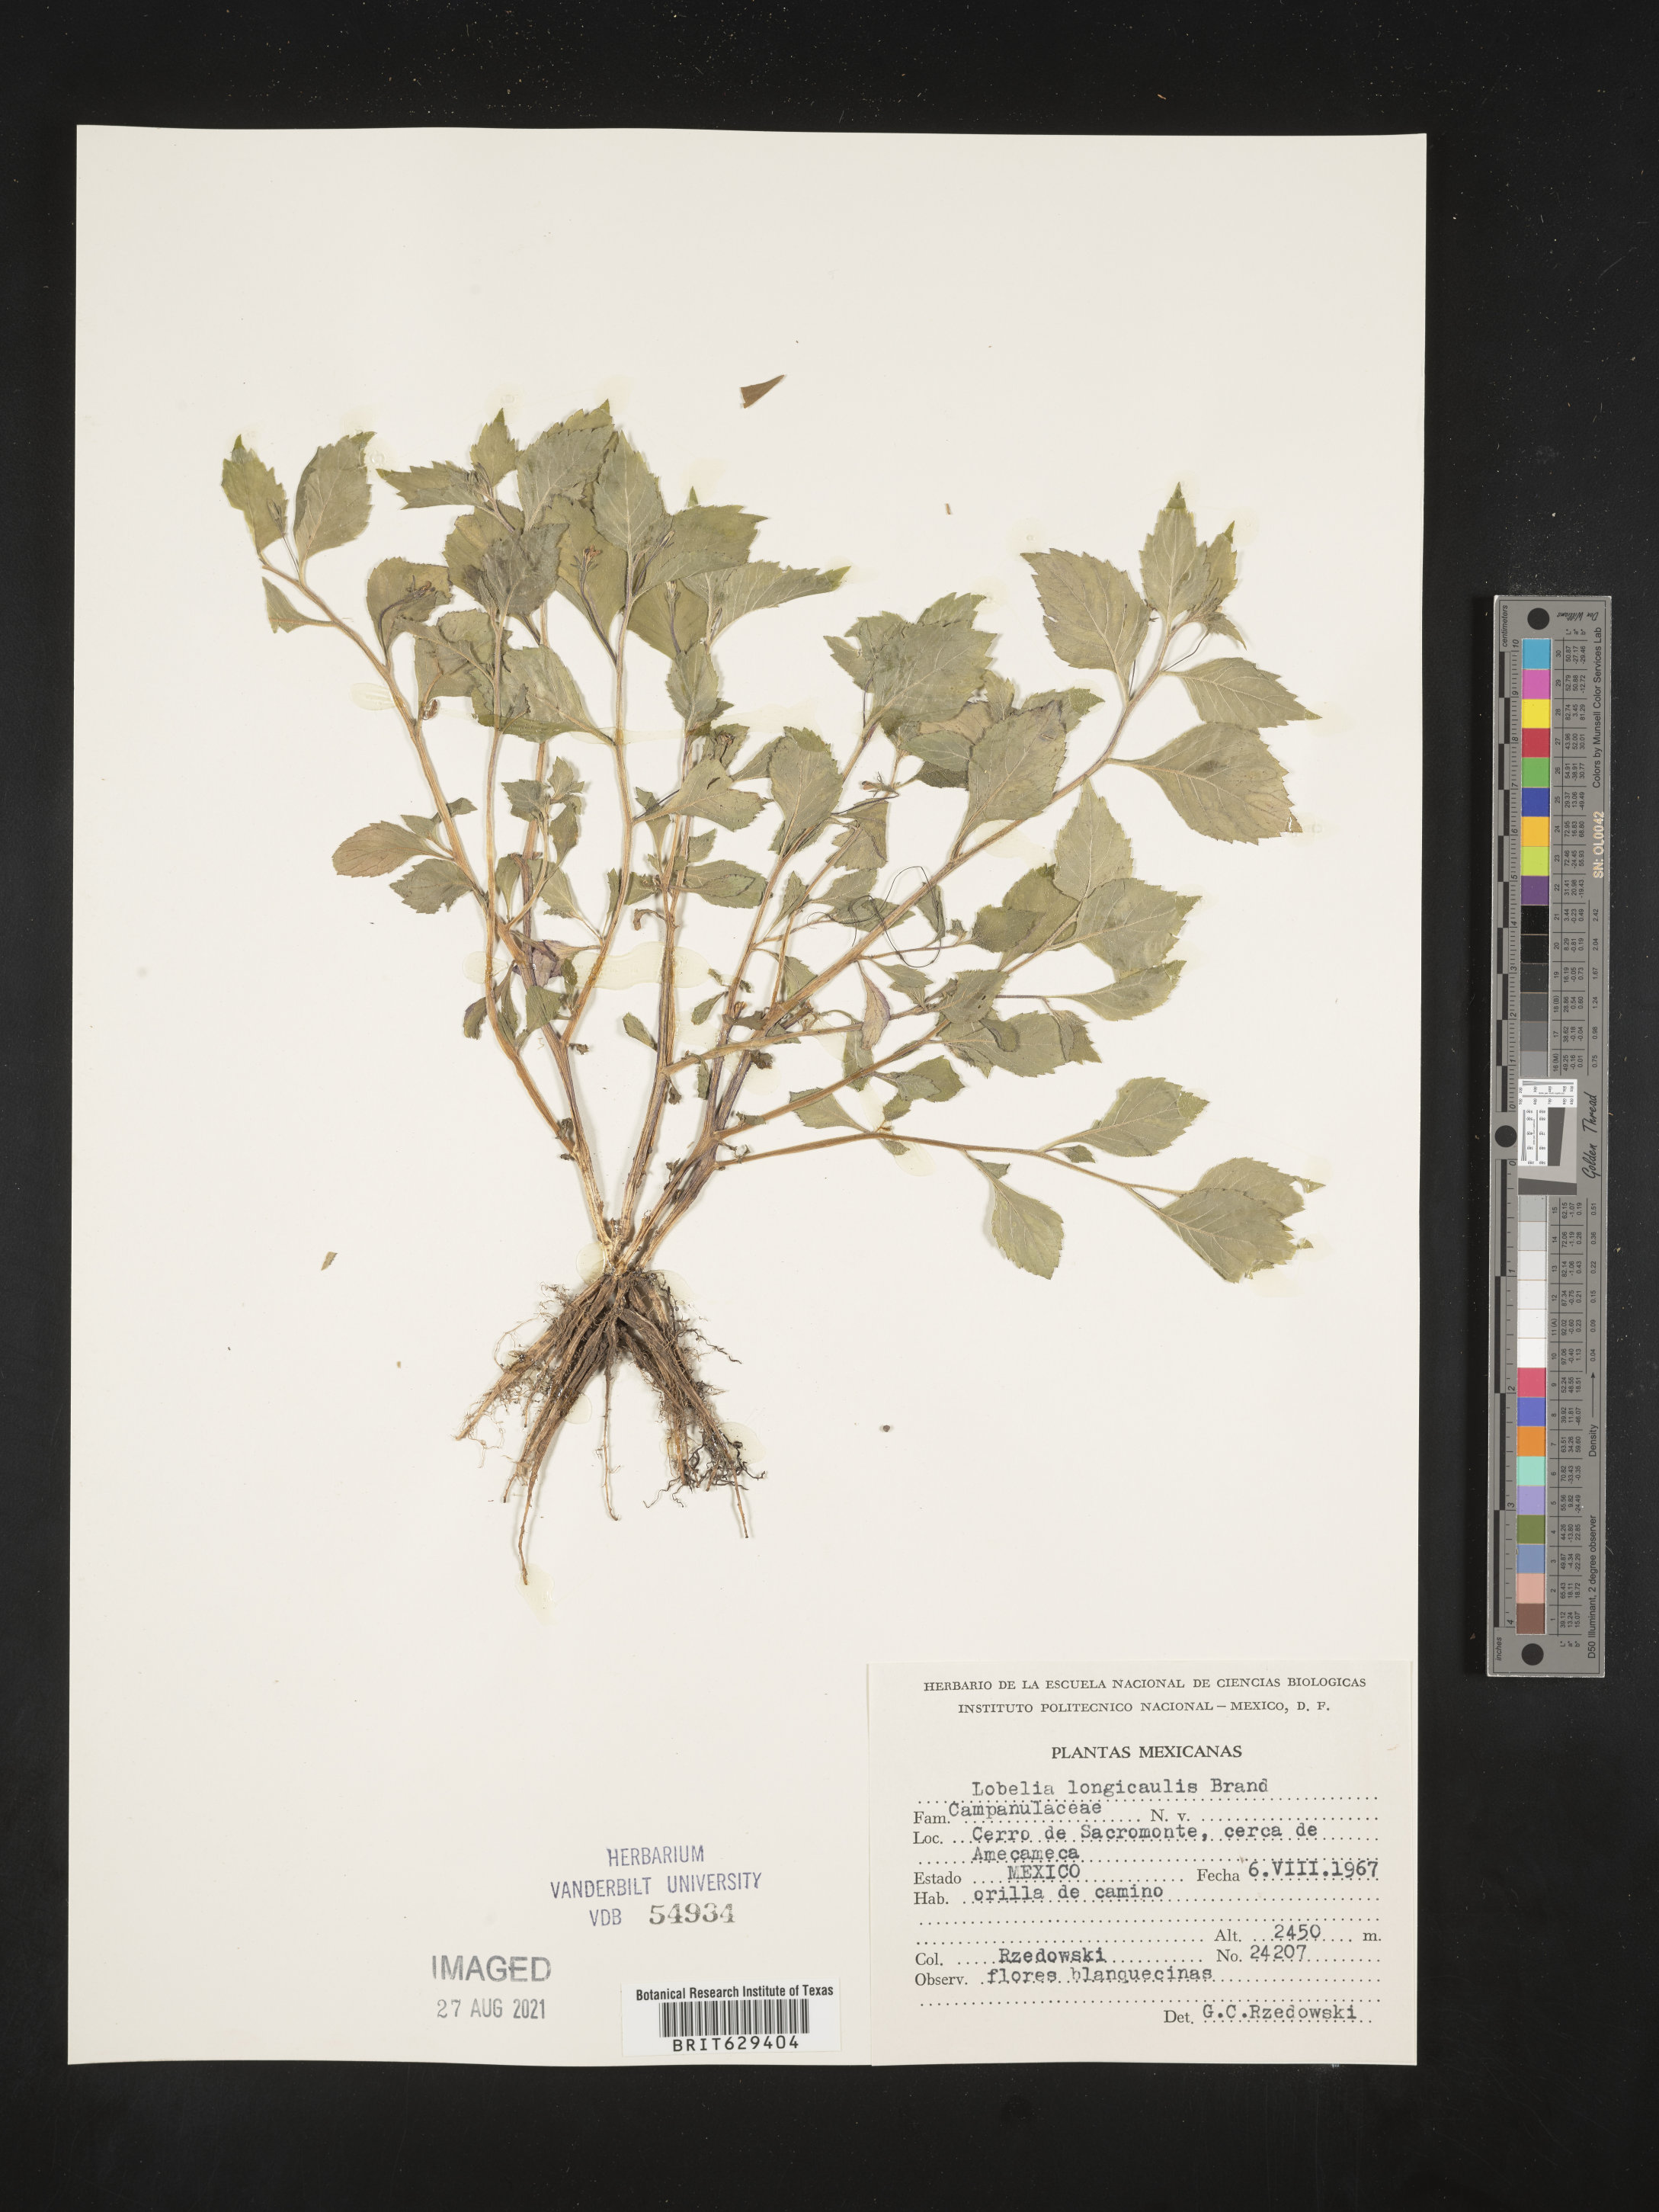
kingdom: Plantae
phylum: Tracheophyta
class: Magnoliopsida
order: Asterales
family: Campanulaceae
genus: Lobelia
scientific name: Lobelia
